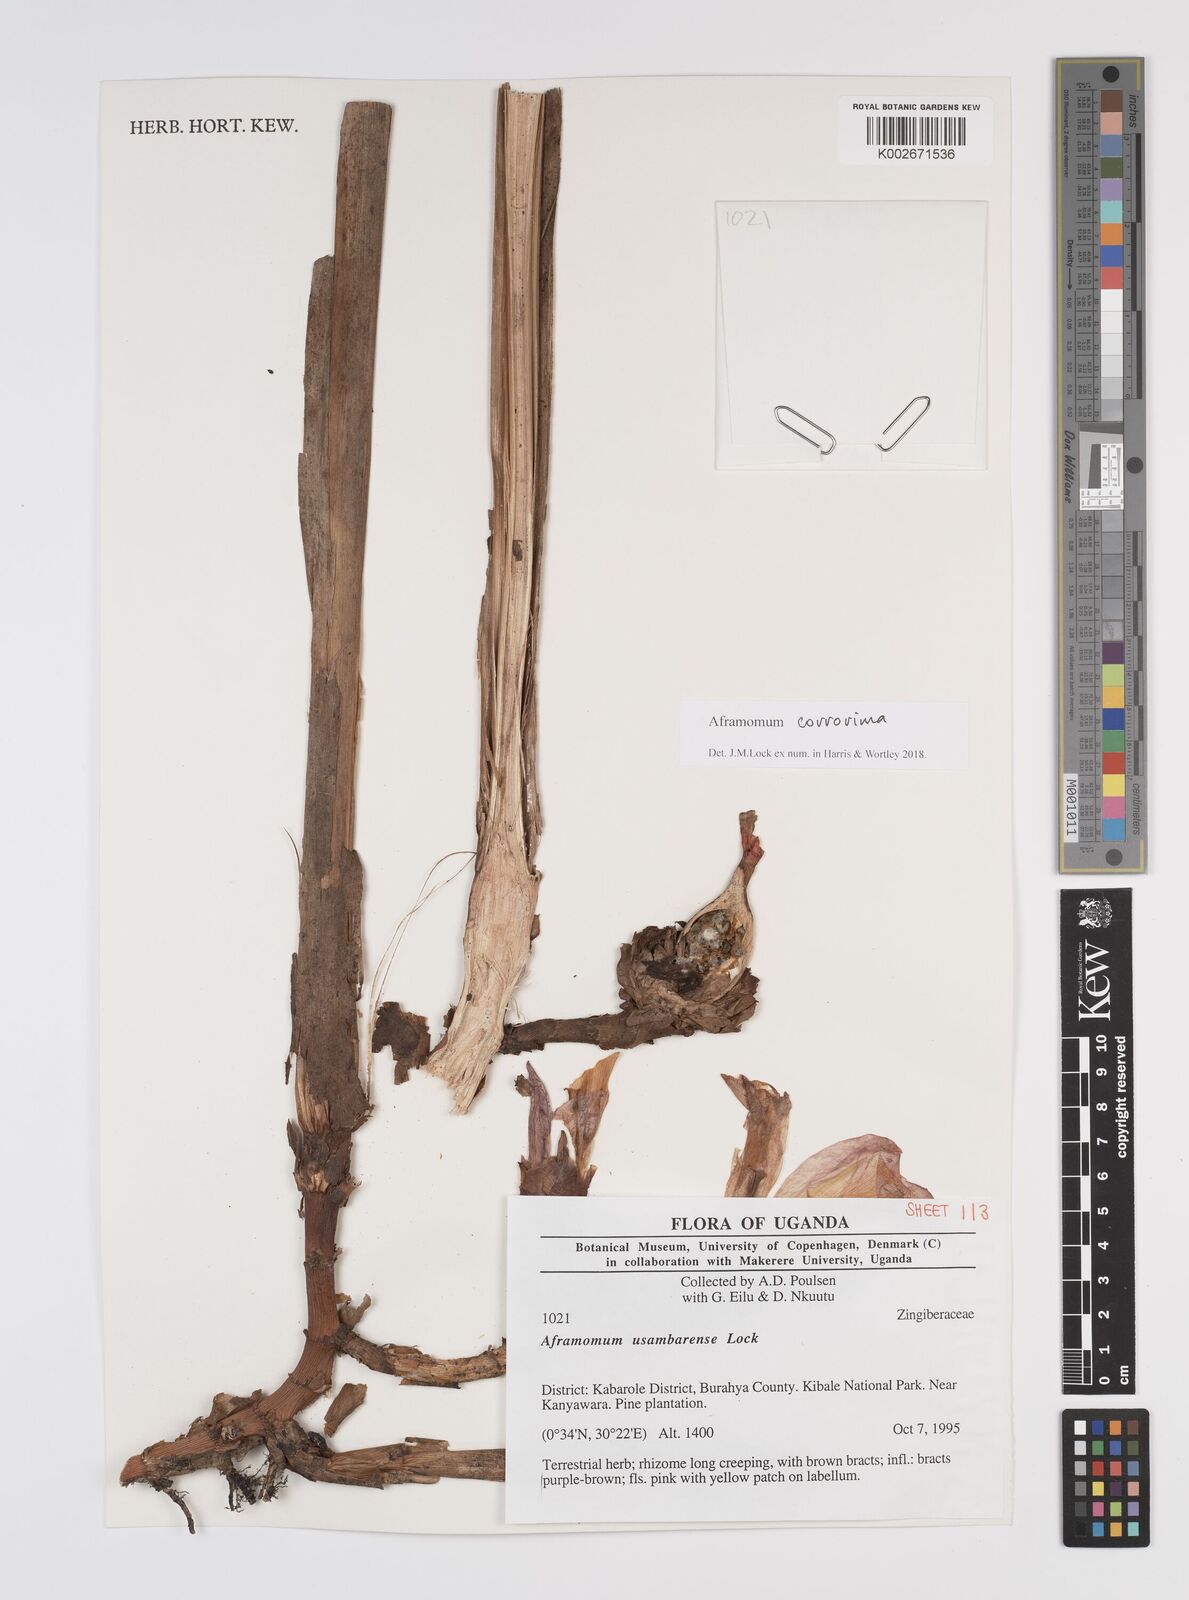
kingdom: Plantae
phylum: Tracheophyta
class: Liliopsida
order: Zingiberales
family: Zingiberaceae
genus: Aframomum
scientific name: Aframomum corrorima
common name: Ethiopian cardamom
